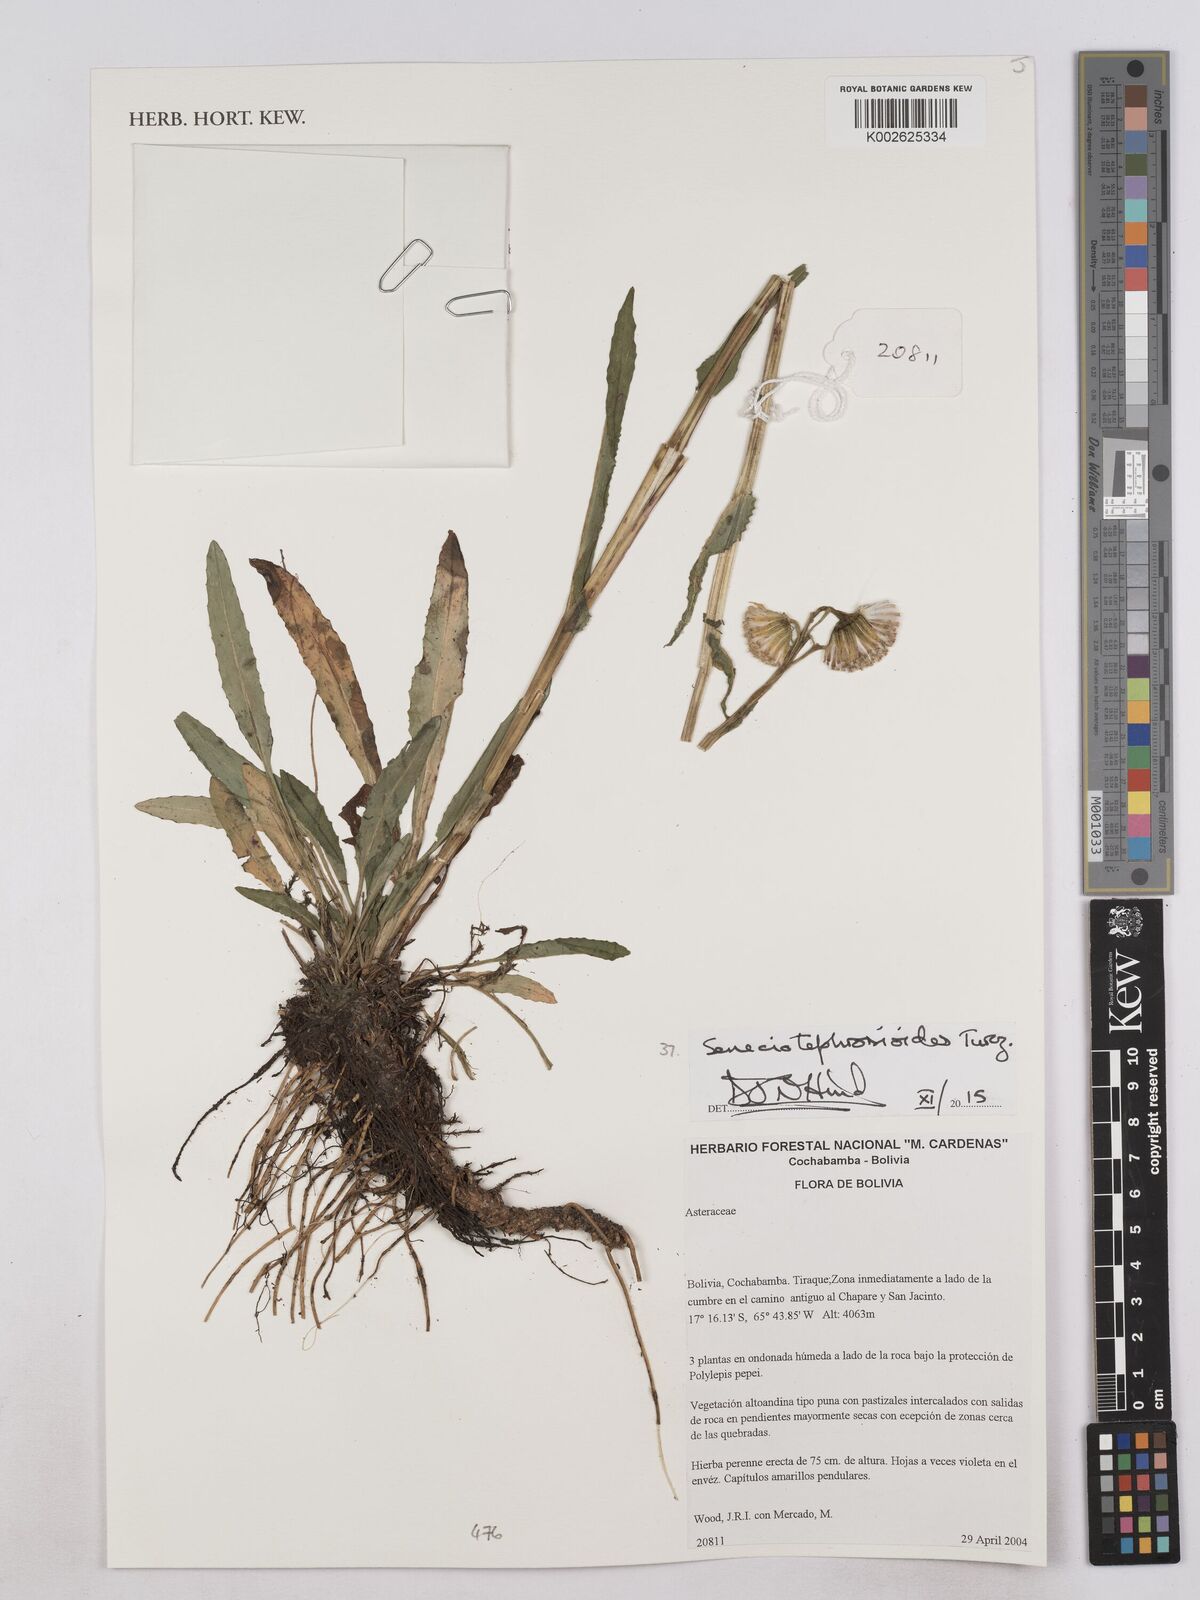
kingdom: Plantae
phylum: Tracheophyta
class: Magnoliopsida
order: Asterales
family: Asteraceae
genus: Senecio
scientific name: Senecio tephrosioides
